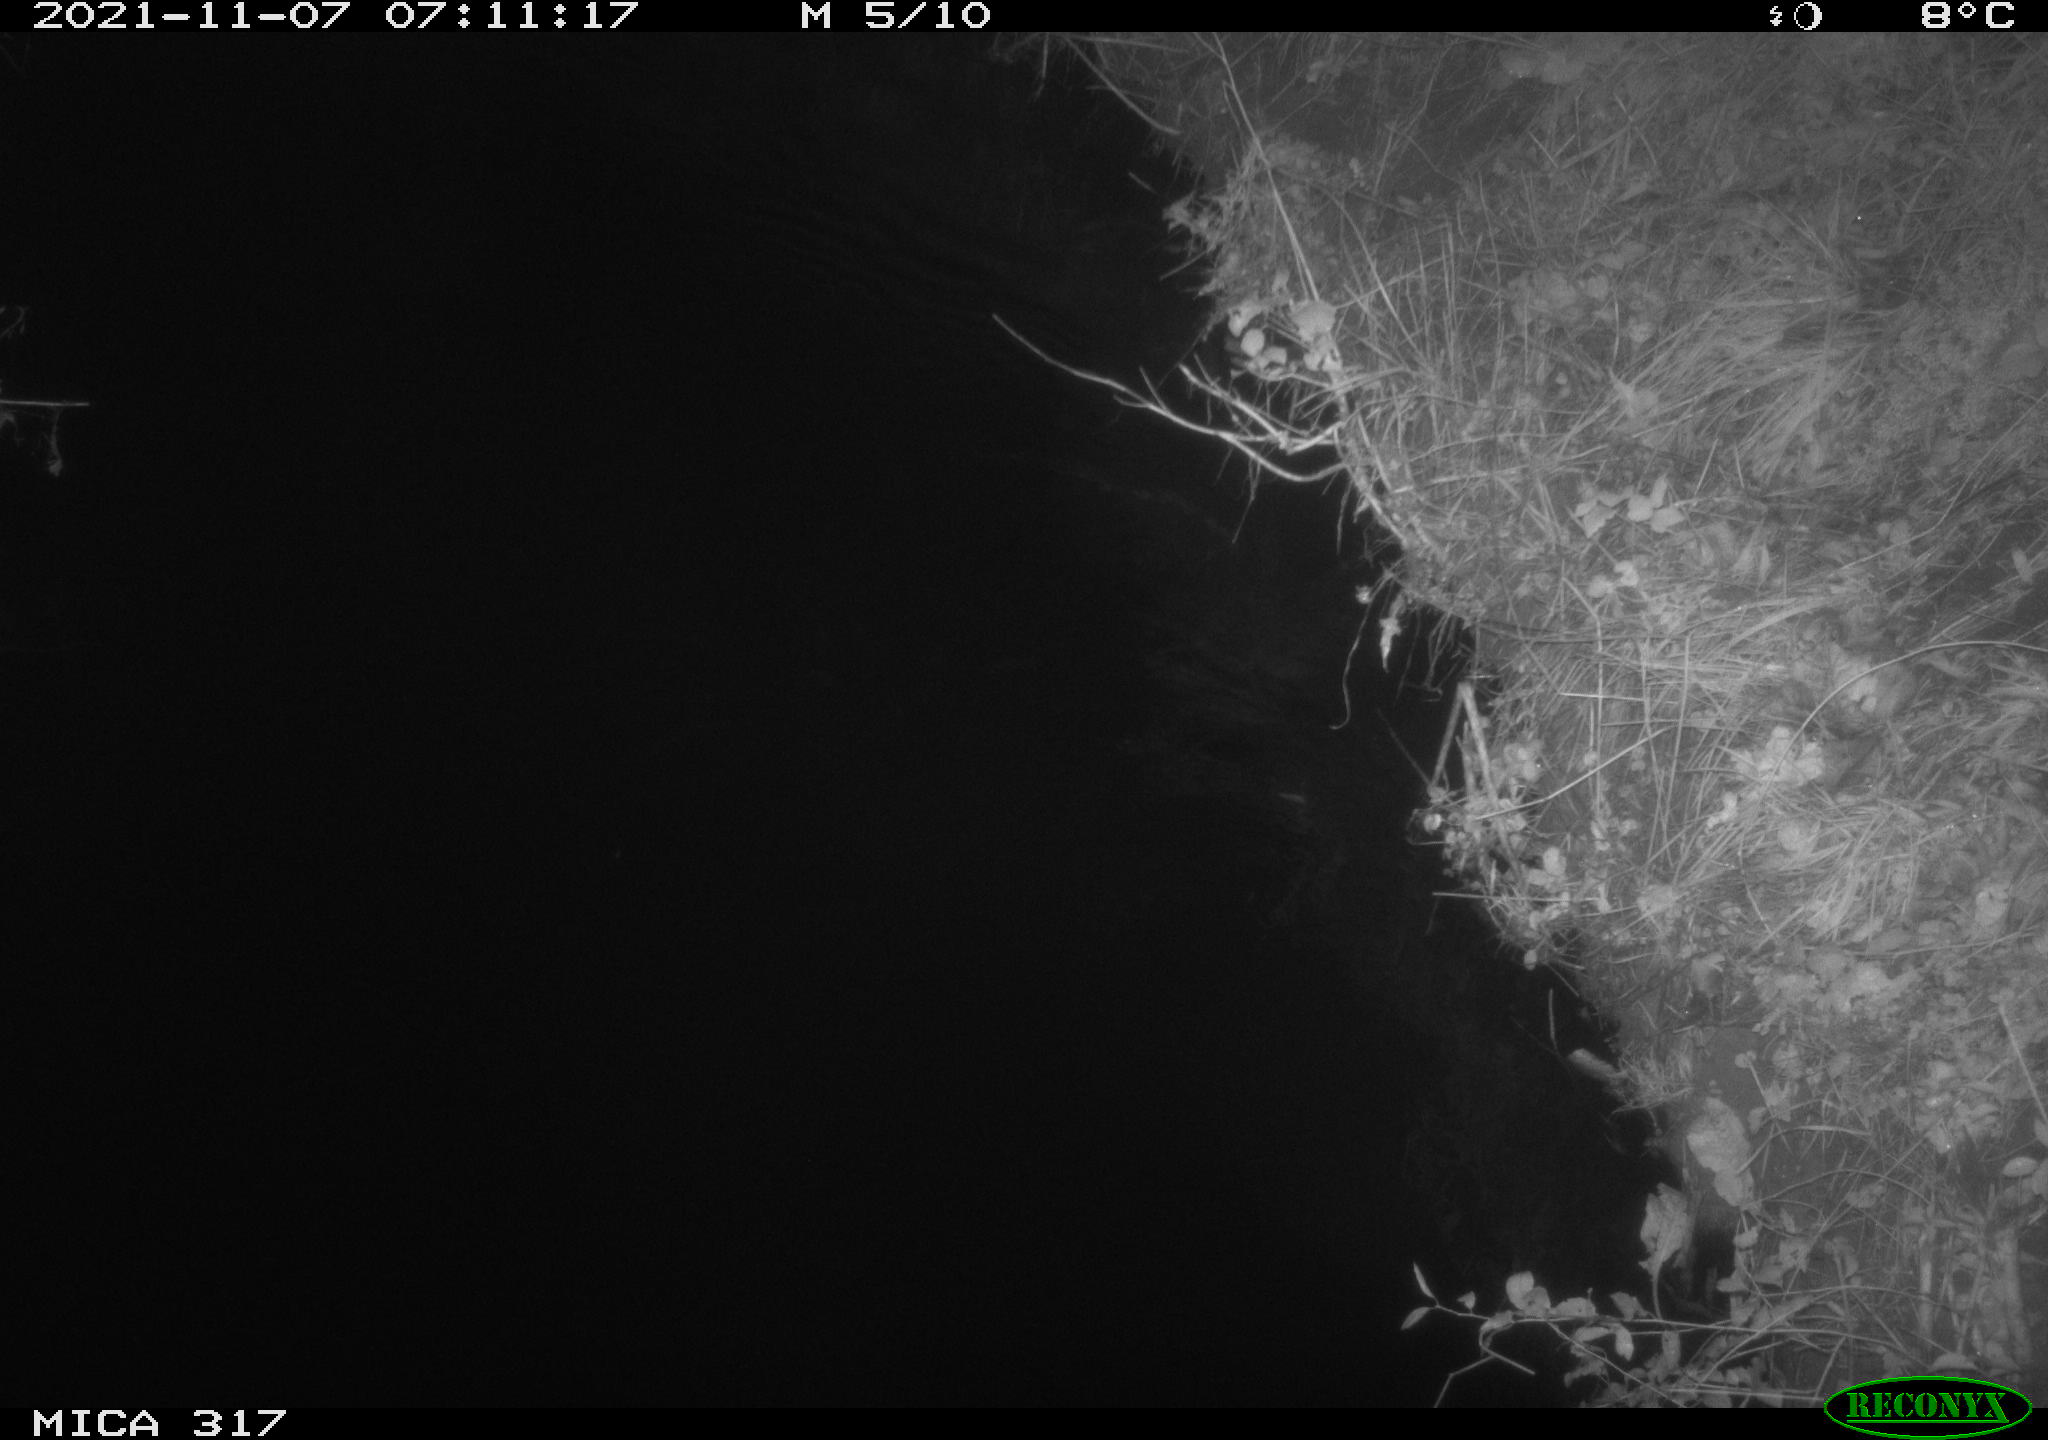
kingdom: Animalia
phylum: Chordata
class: Mammalia
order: Rodentia
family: Muridae
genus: Rattus
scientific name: Rattus norvegicus
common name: Brown rat
